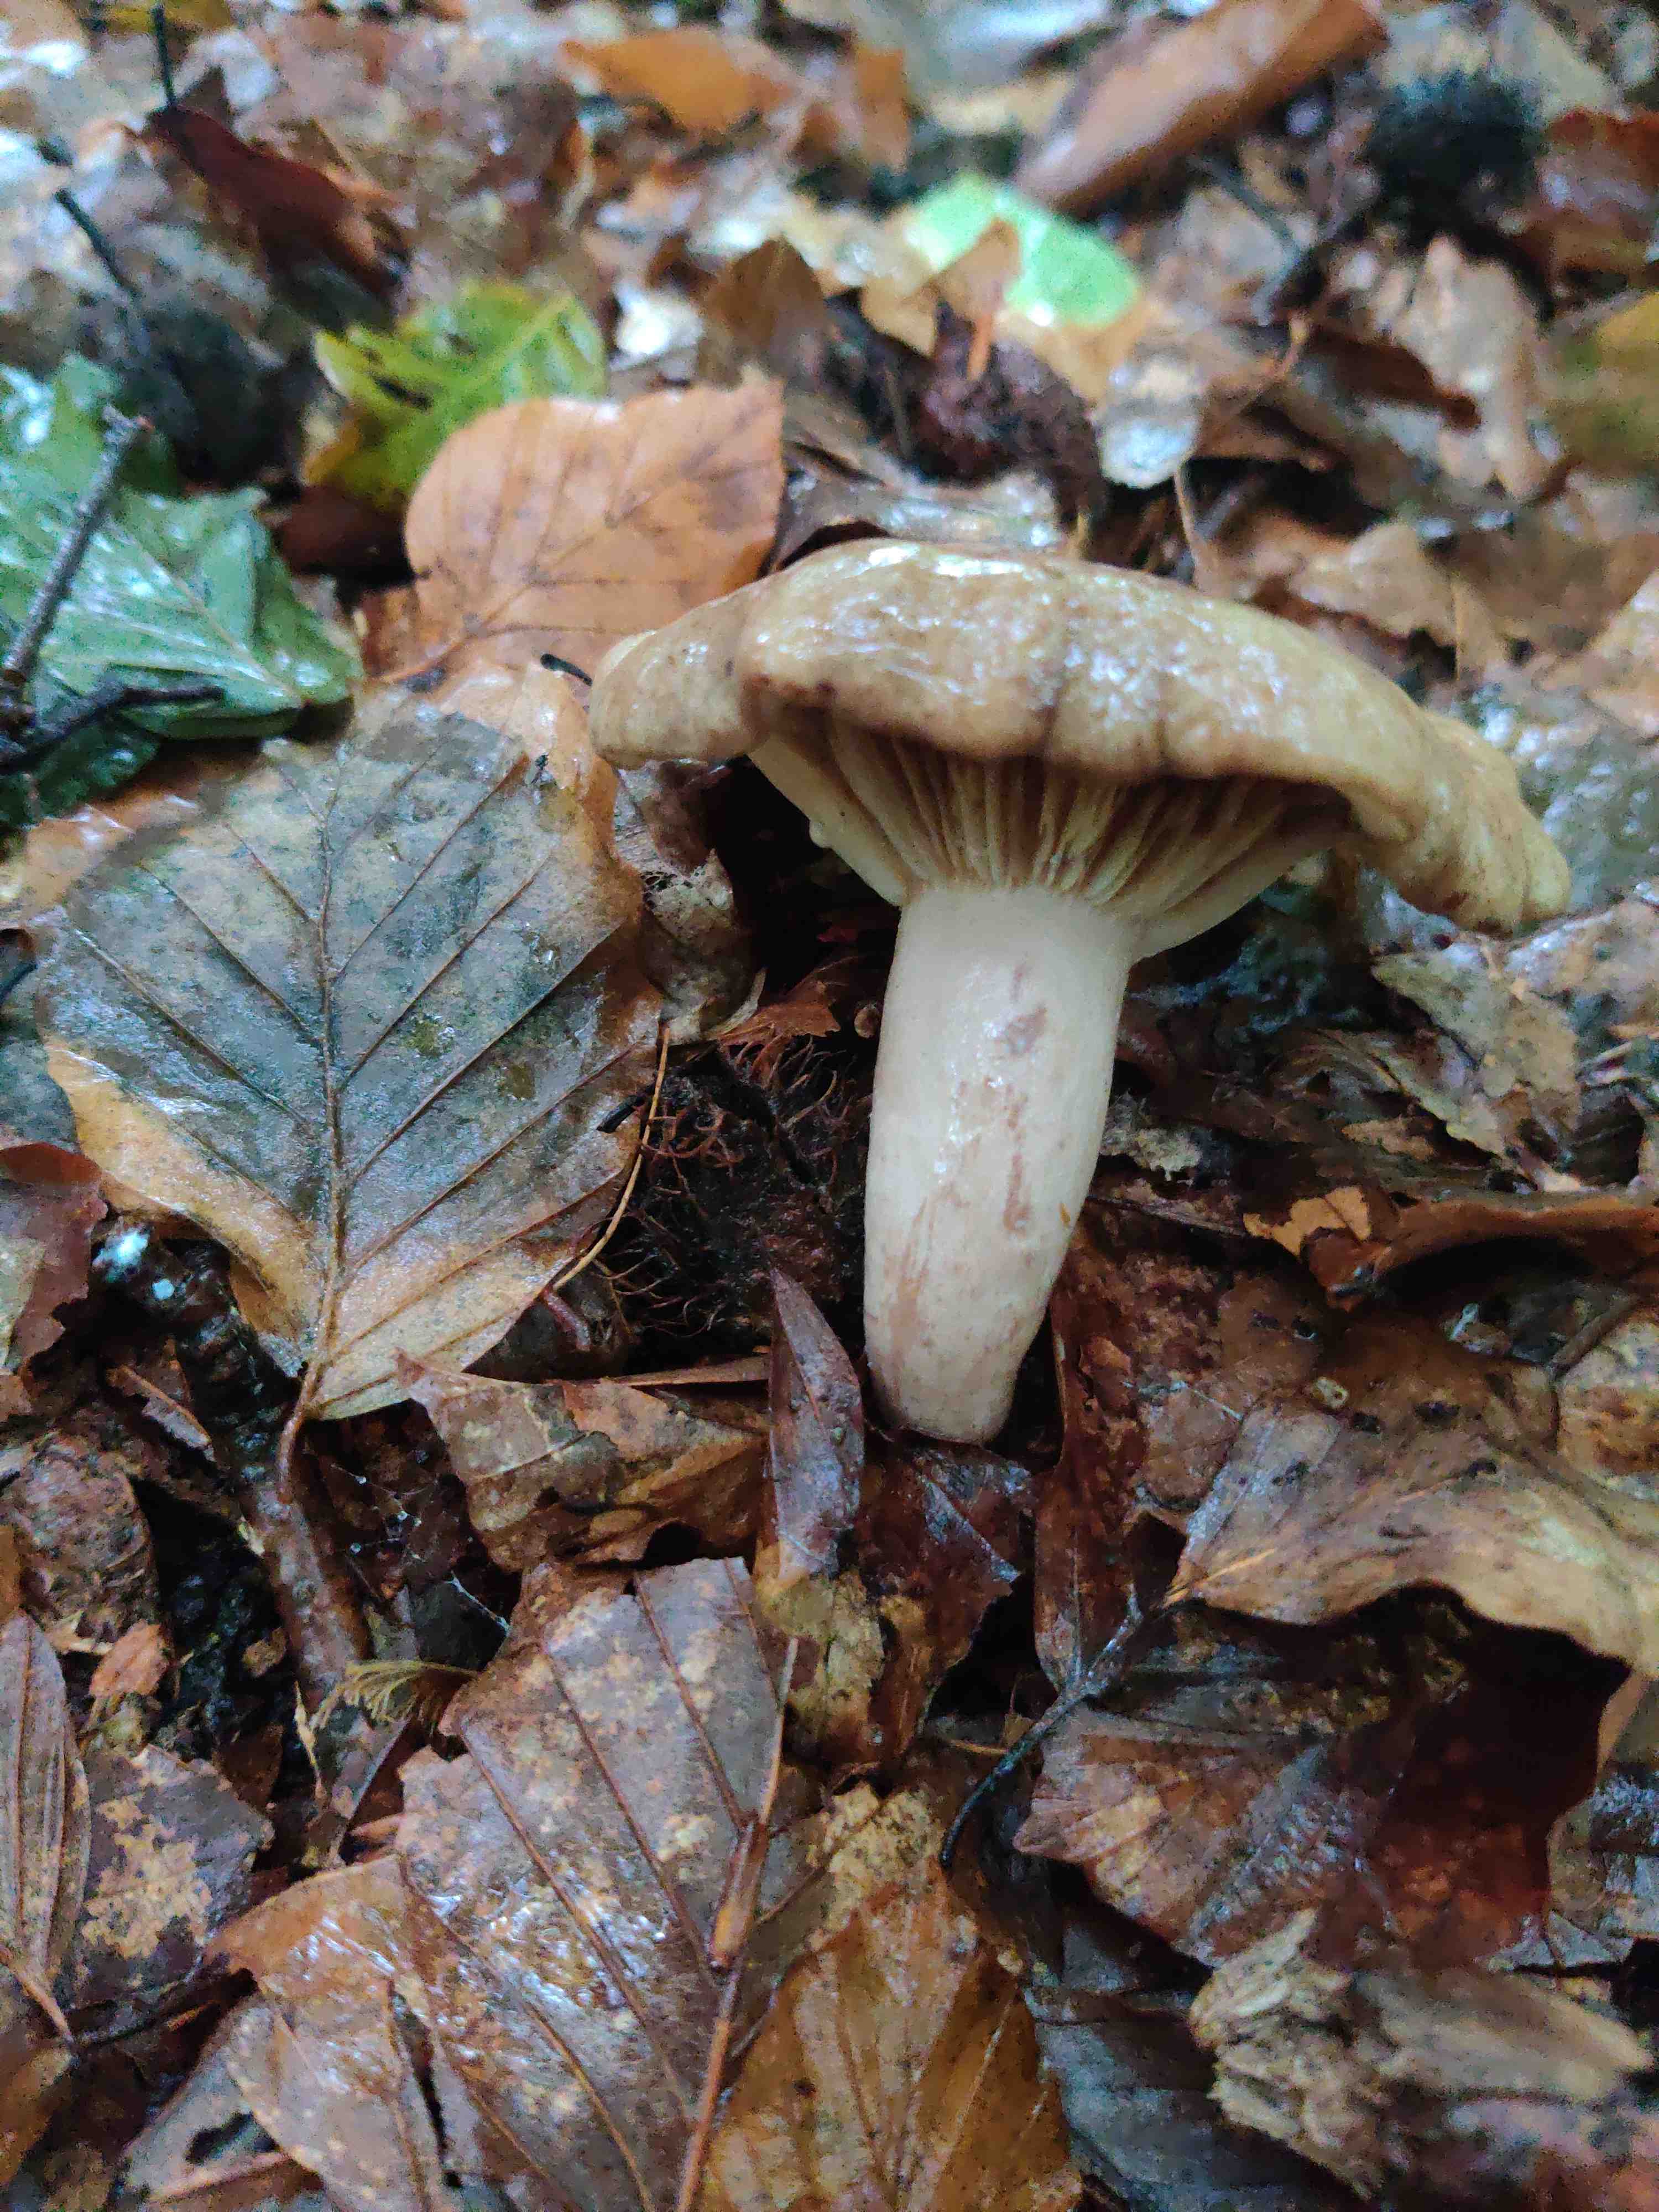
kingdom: Fungi
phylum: Basidiomycota
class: Agaricomycetes
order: Russulales
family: Russulaceae
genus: Lactarius
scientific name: Lactarius blennius
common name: dråbeplettet mælkehat
